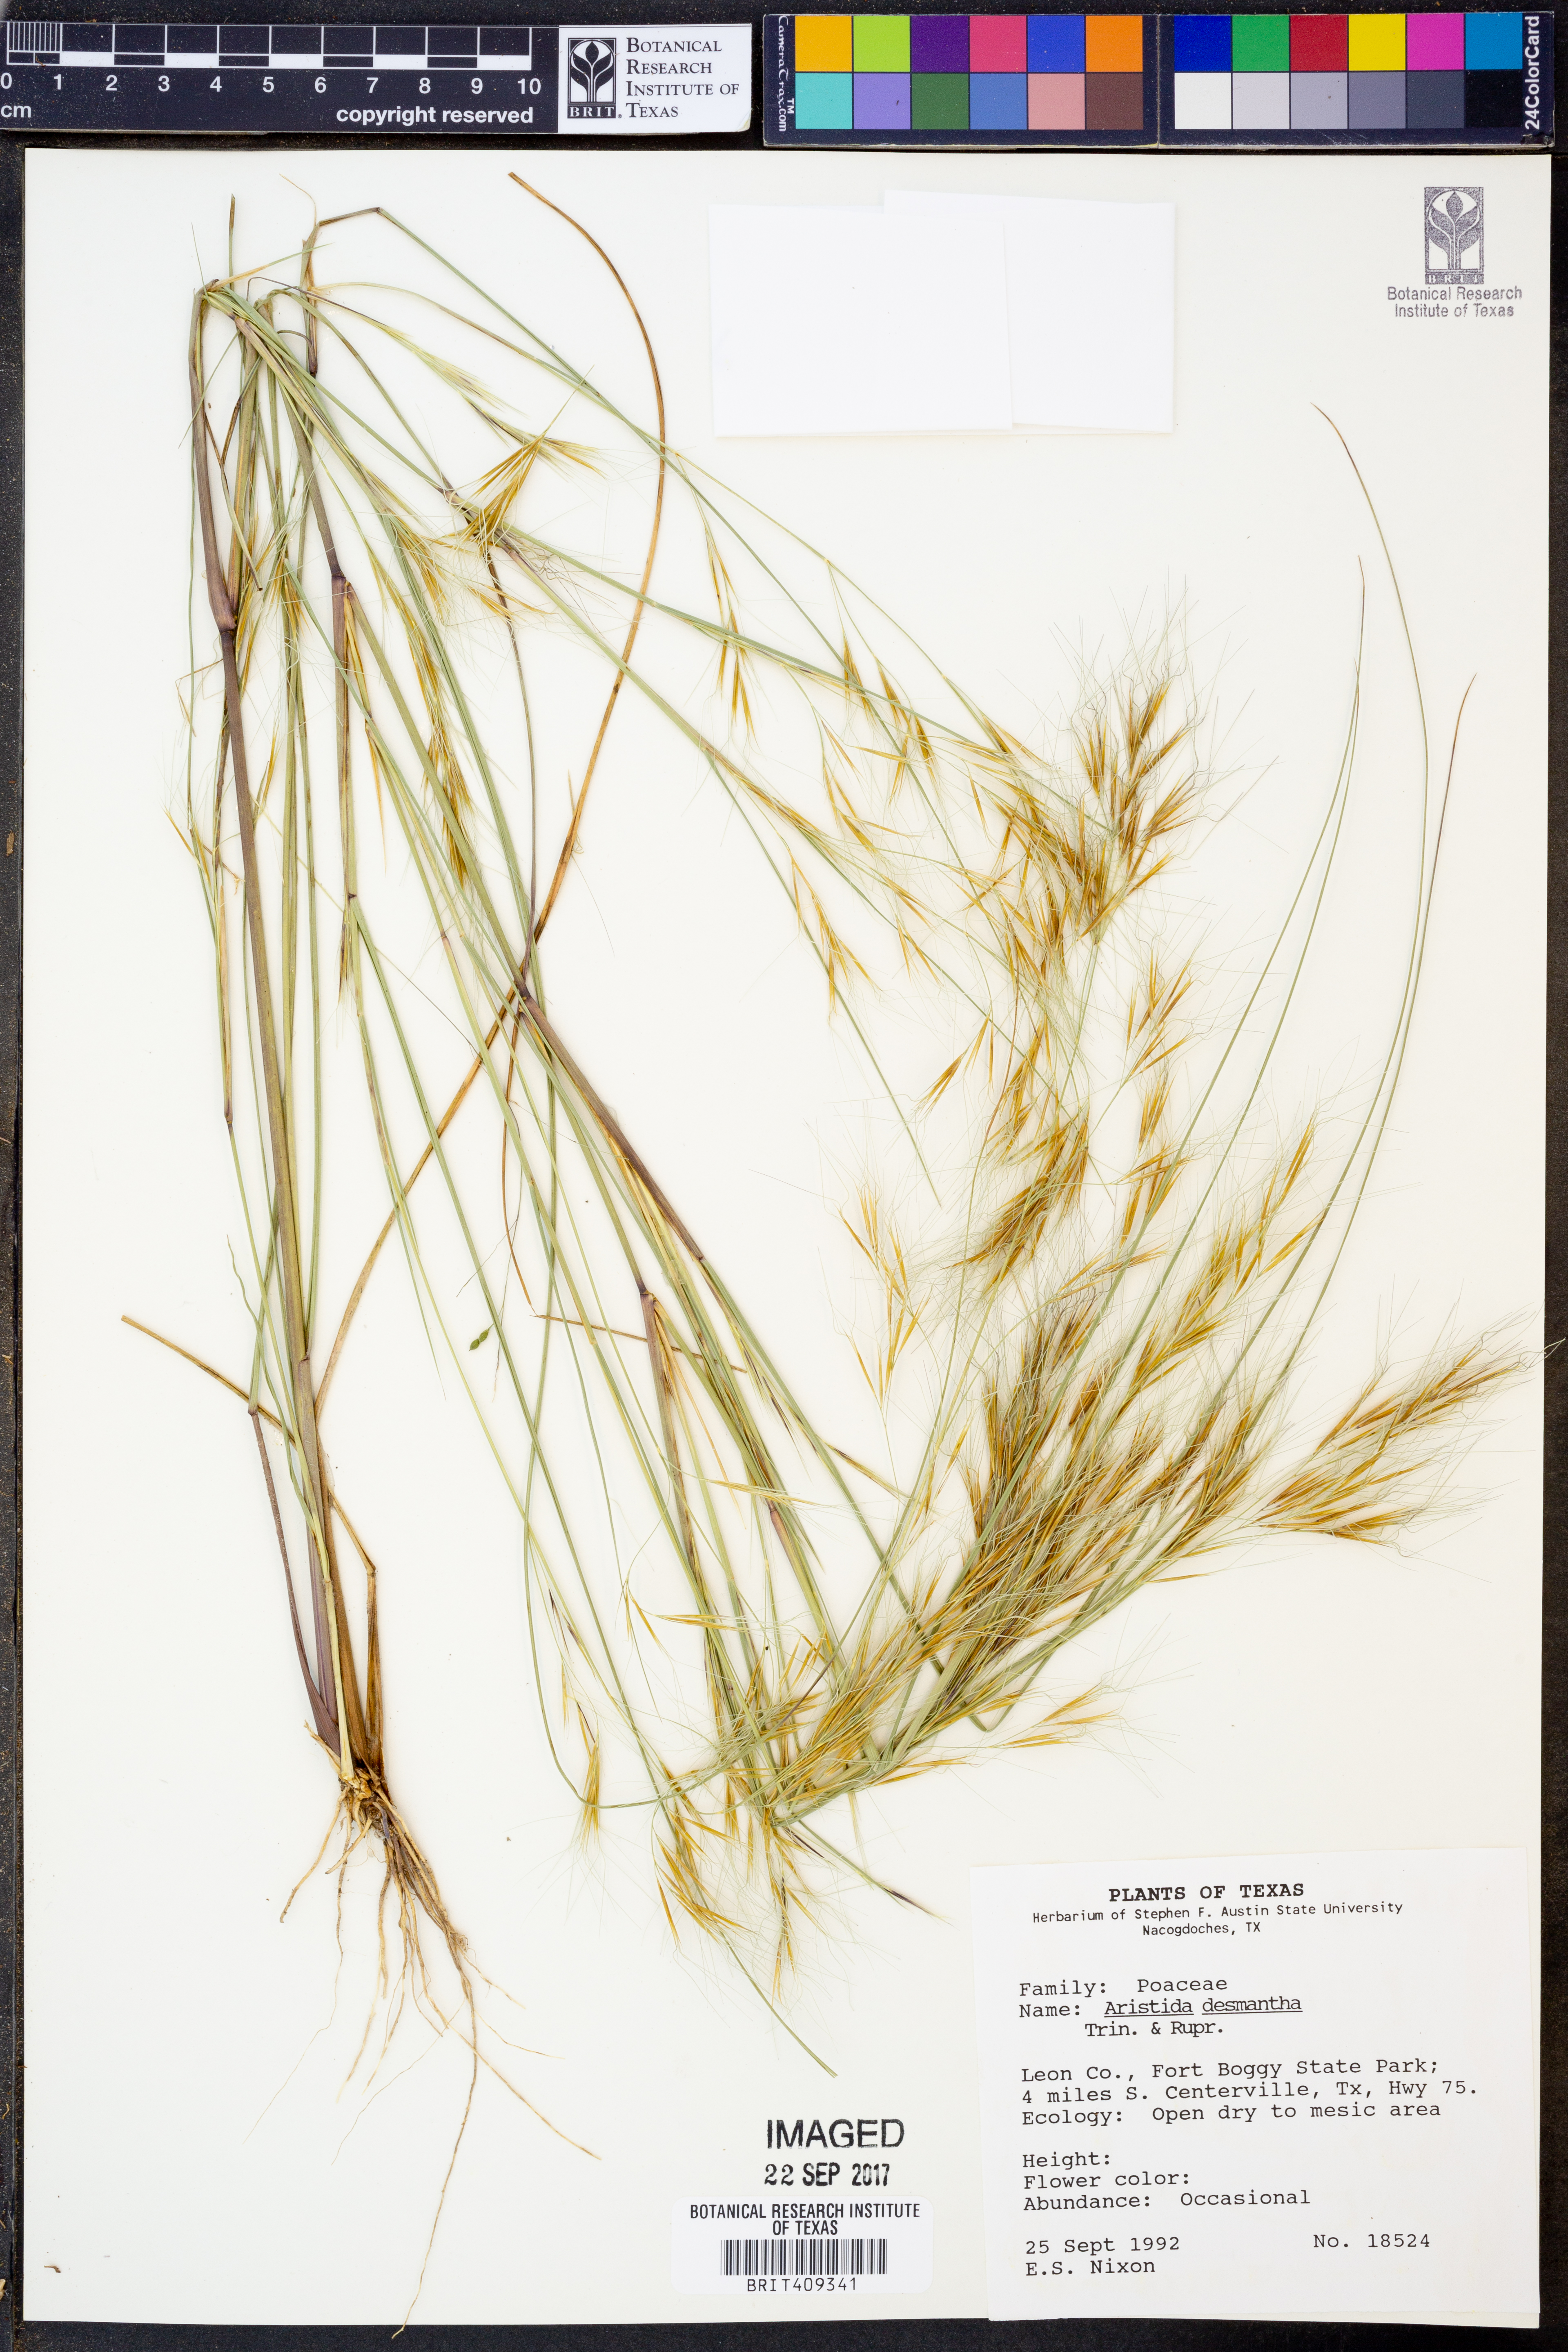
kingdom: Plantae
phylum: Tracheophyta
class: Liliopsida
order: Poales
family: Poaceae
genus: Aristida
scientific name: Aristida desmantha
